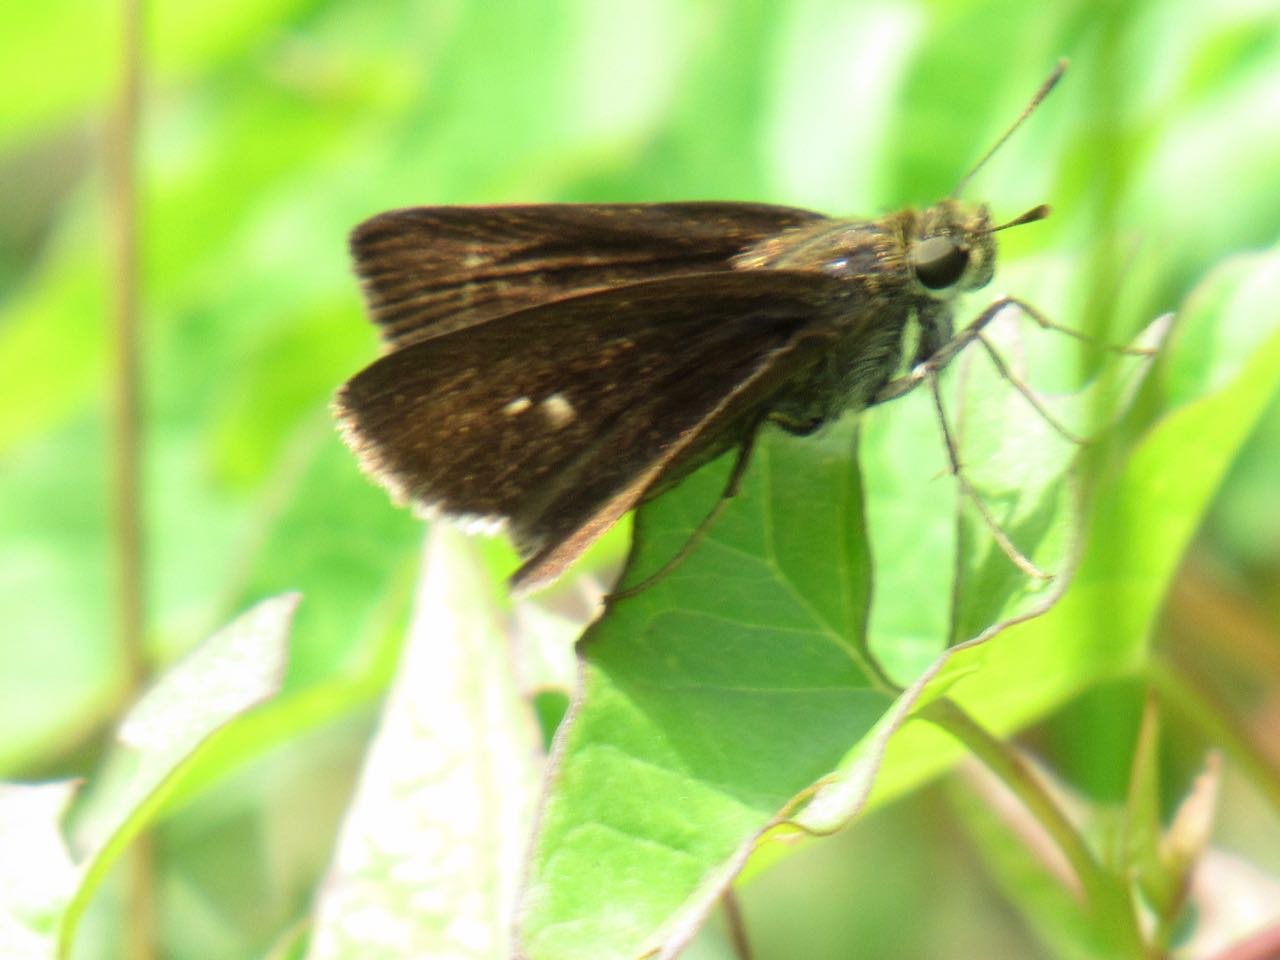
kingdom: Animalia
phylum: Arthropoda
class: Insecta
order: Lepidoptera
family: Hesperiidae
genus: Euphyes
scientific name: Euphyes vestris
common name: Dun Skipper
